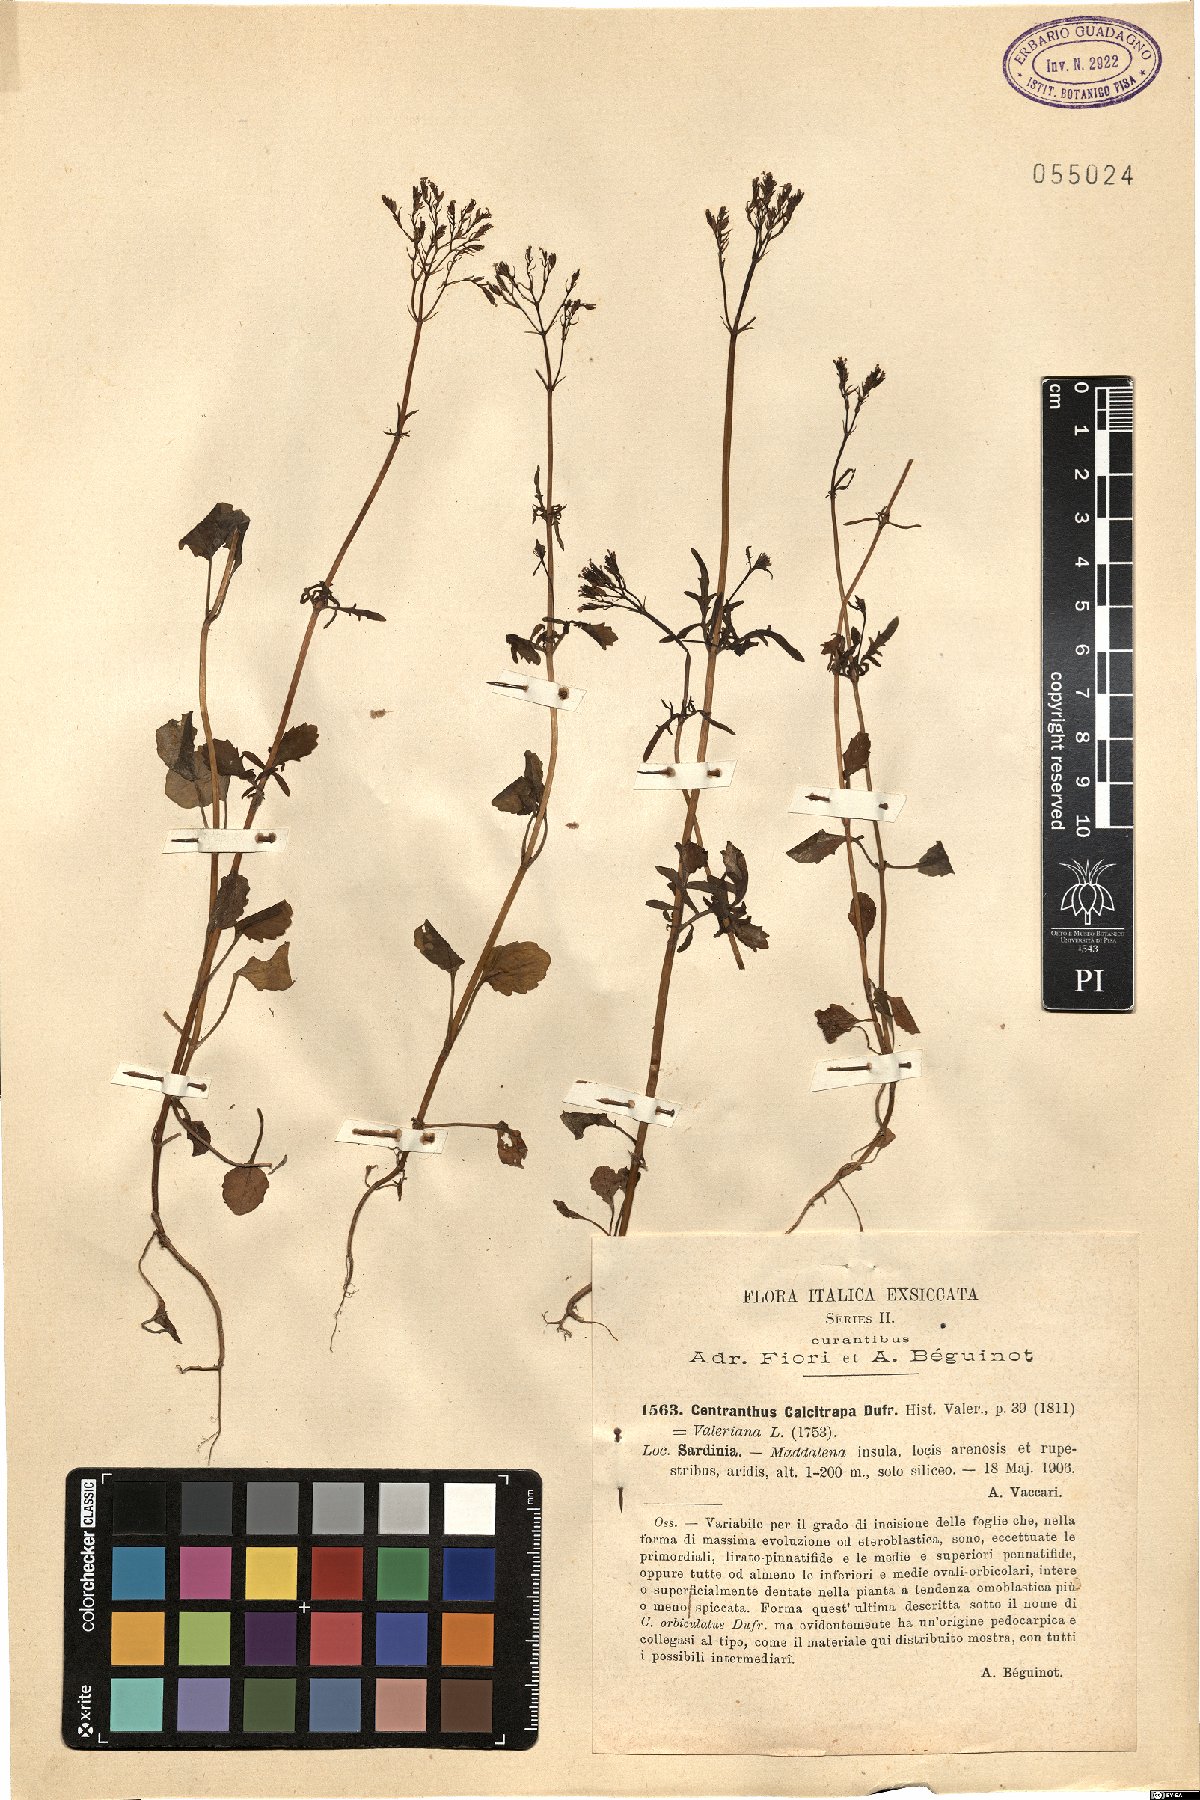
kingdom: Plantae
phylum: Tracheophyta
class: Magnoliopsida
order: Dipsacales
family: Caprifoliaceae
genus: Centranthus
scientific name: Centranthus calcitrapae
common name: Annual valerian
